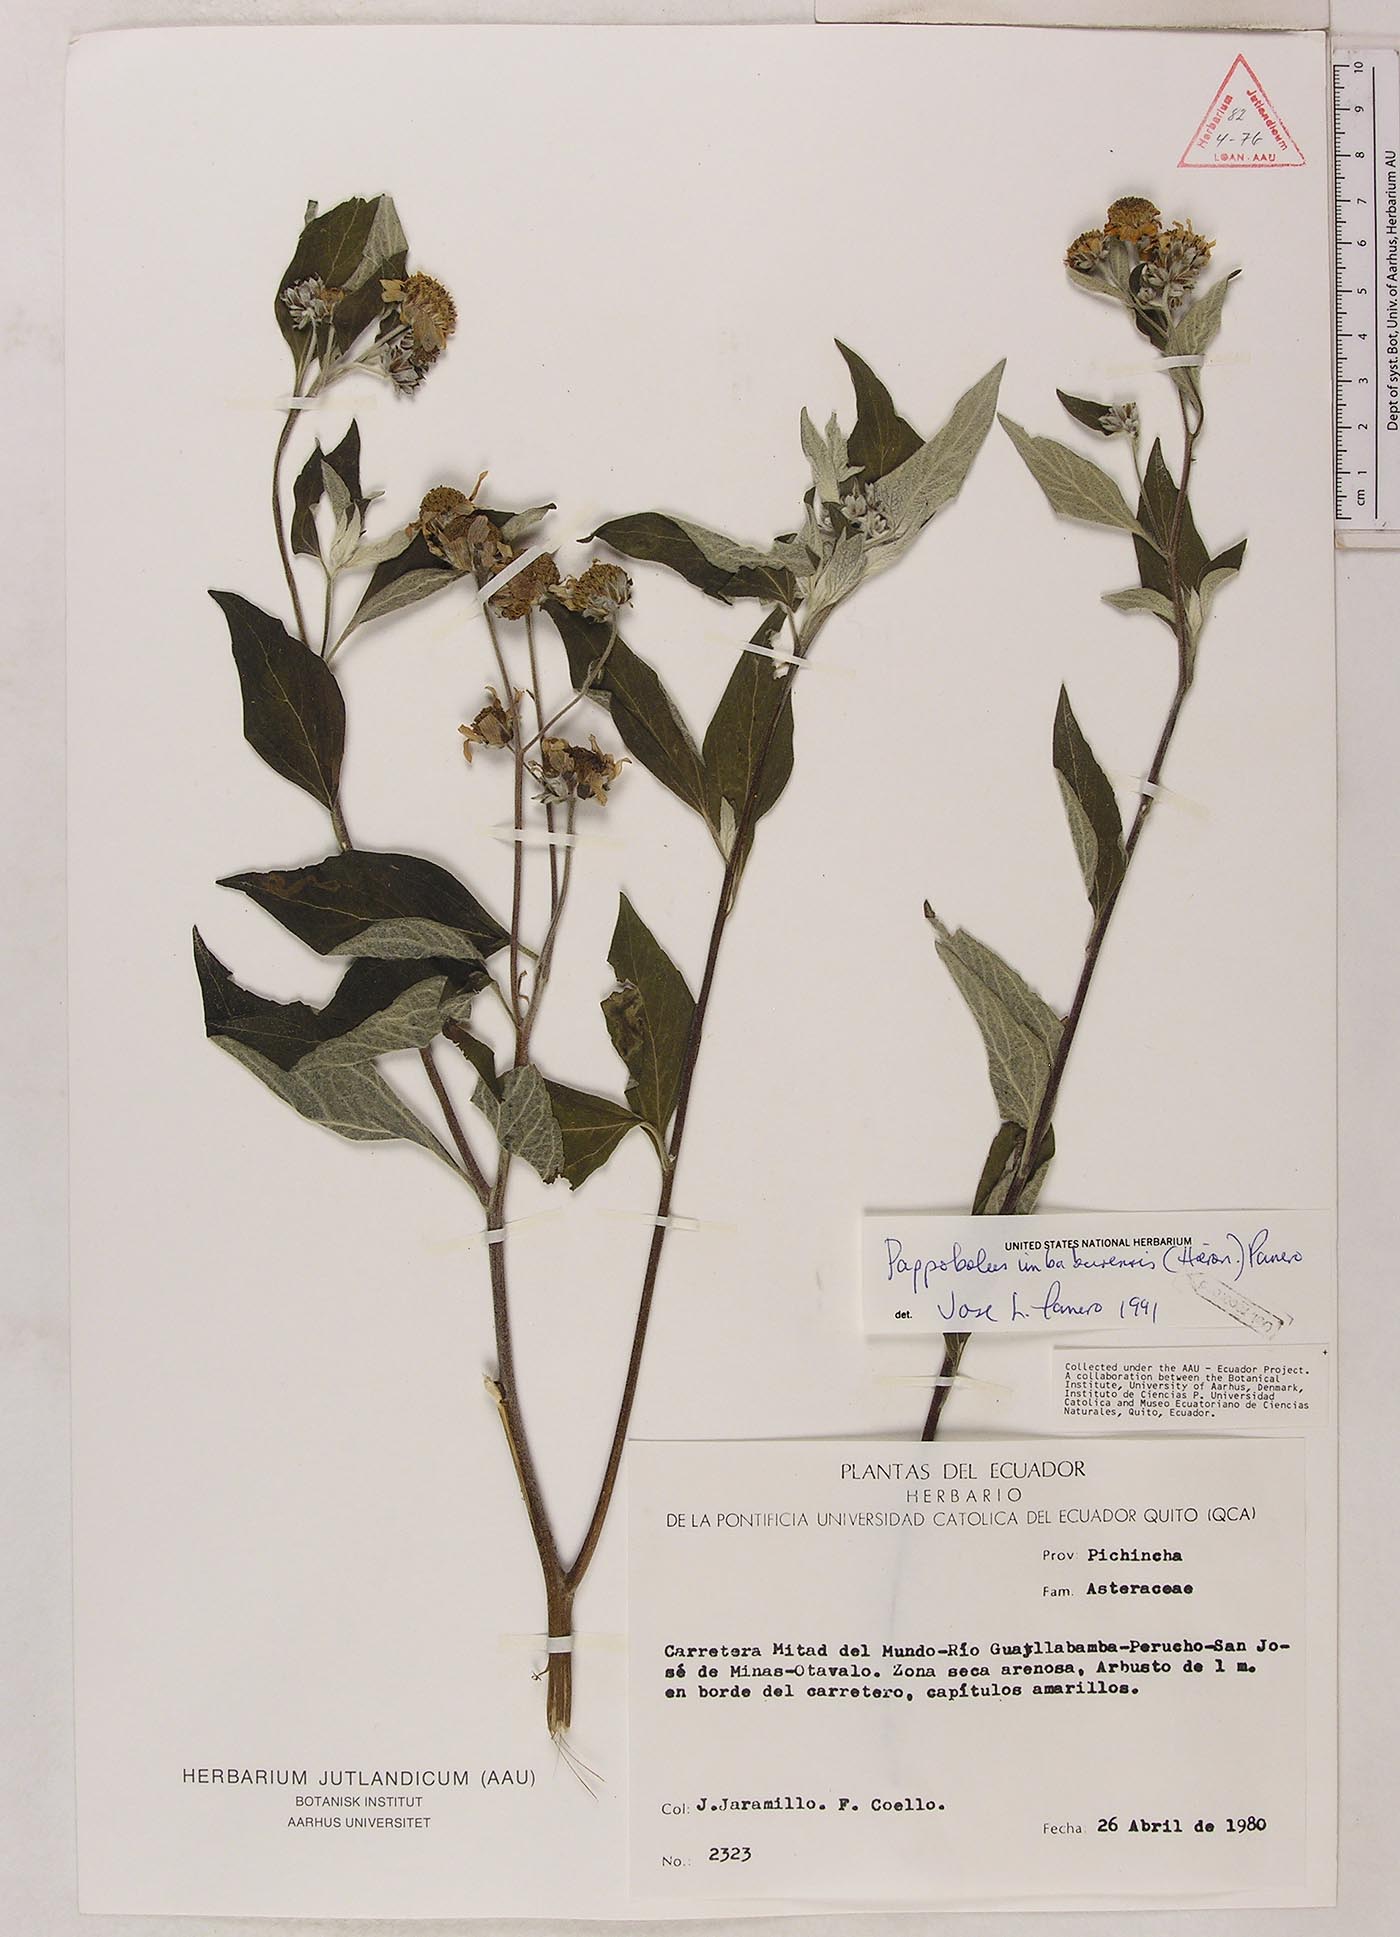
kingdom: Plantae
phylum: Tracheophyta
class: Magnoliopsida
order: Asterales
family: Asteraceae
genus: Pappobolus
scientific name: Pappobolus imbaburensis
